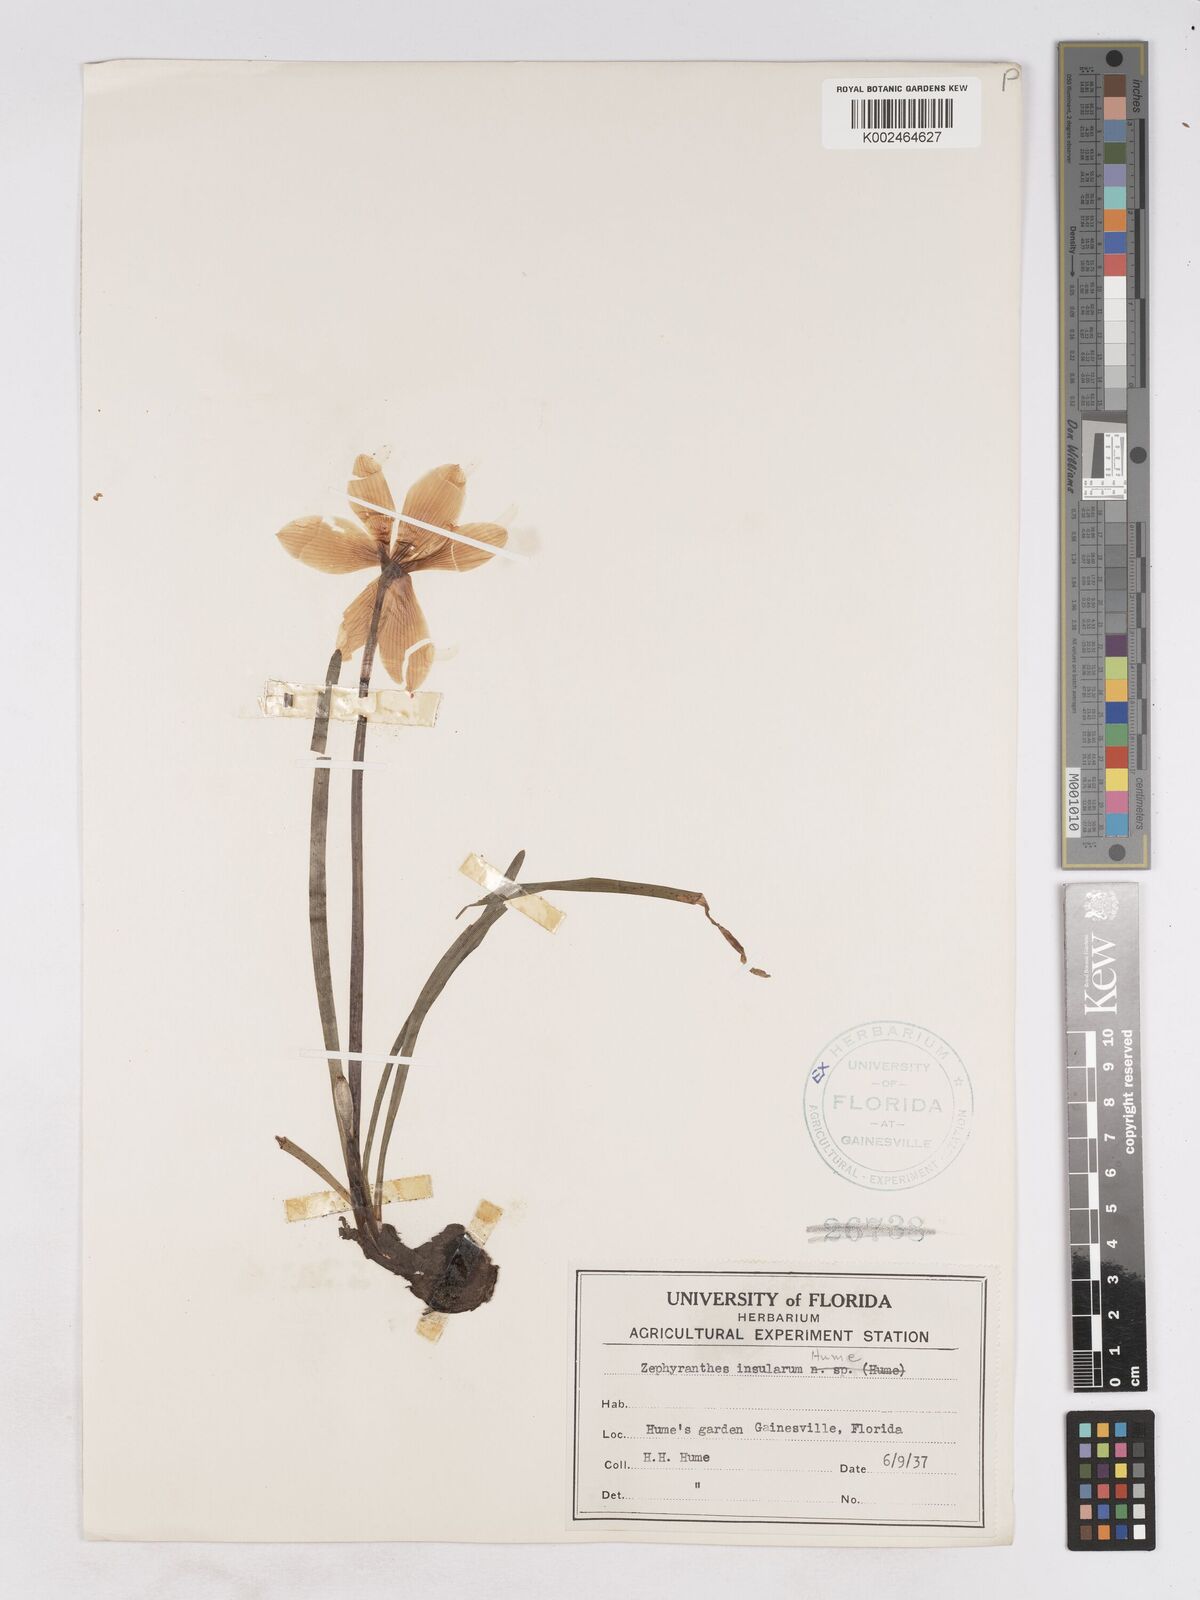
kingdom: Plantae
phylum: Tracheophyta
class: Liliopsida
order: Asparagales
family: Amaryllidaceae
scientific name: Amaryllidaceae
